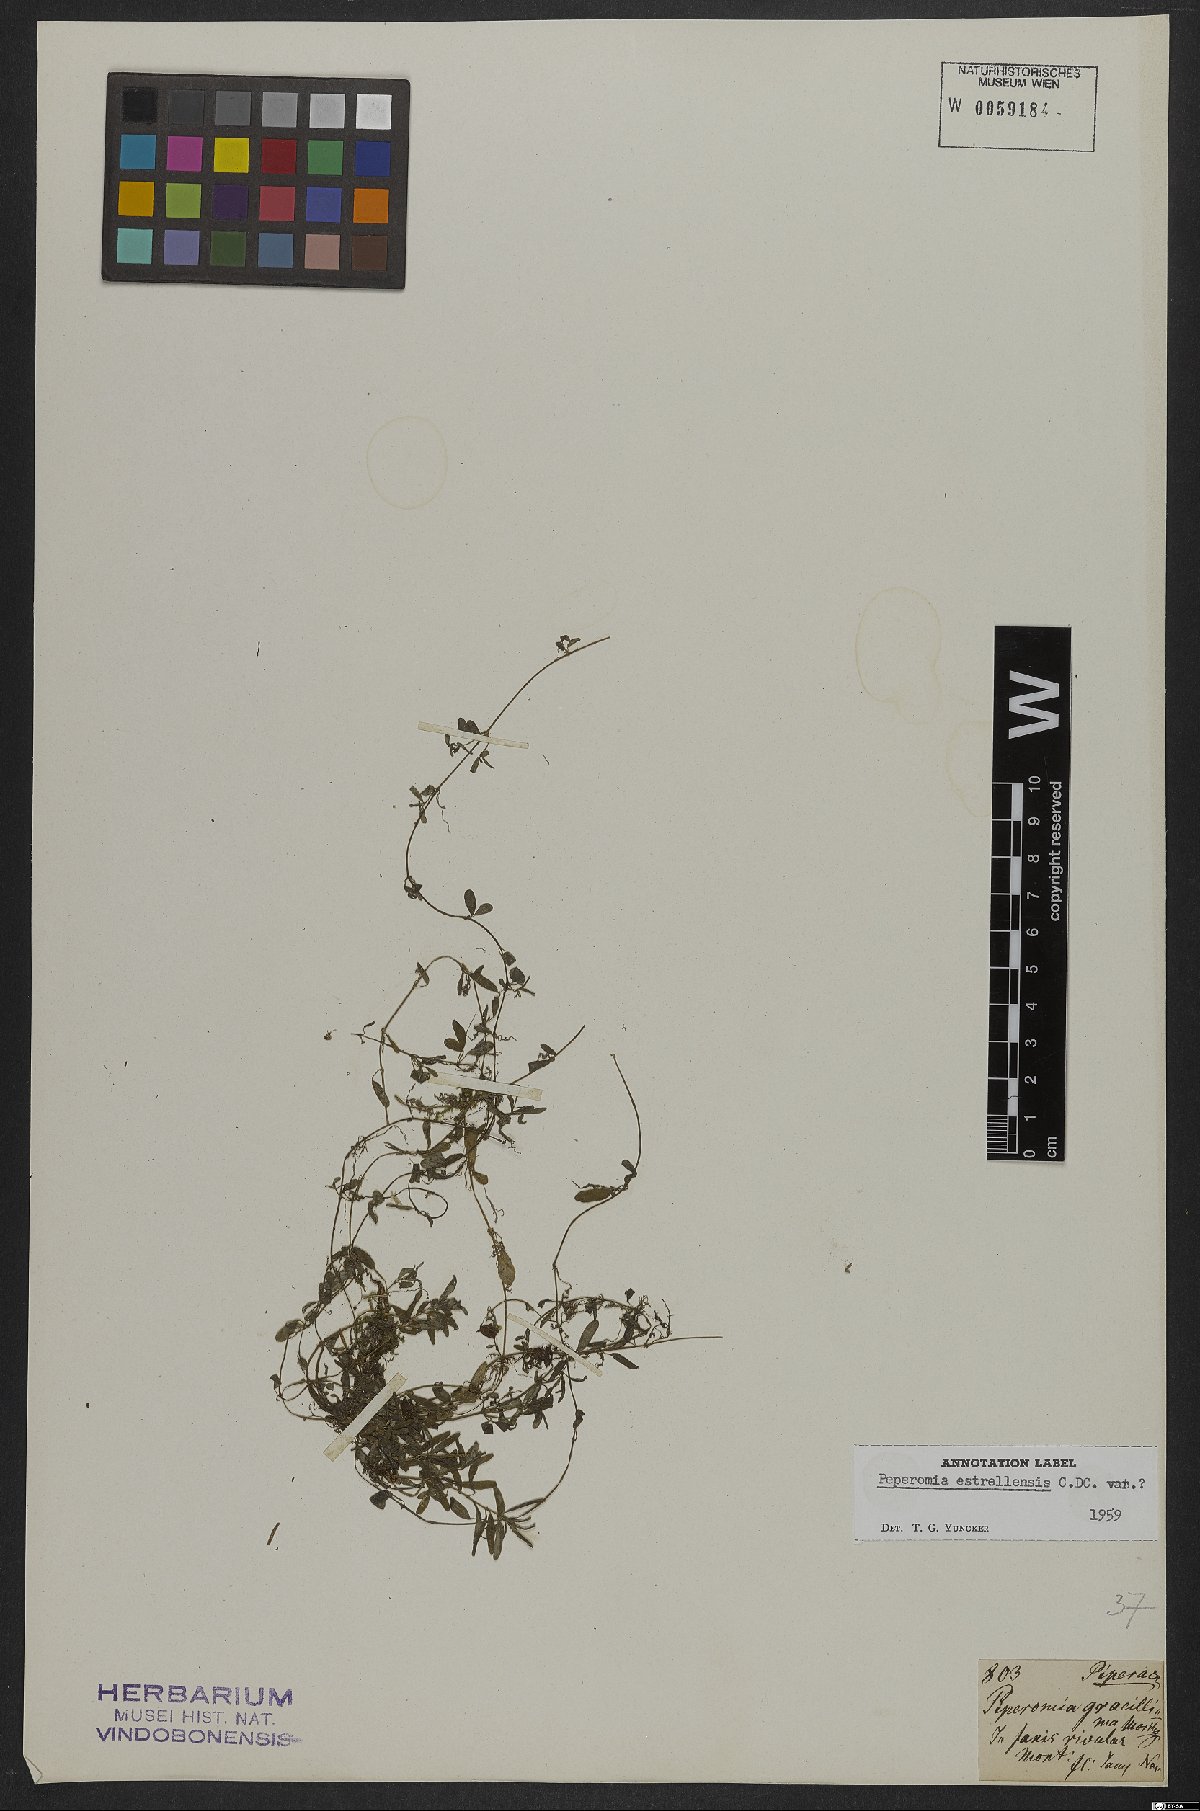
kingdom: Plantae
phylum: Tracheophyta
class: Magnoliopsida
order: Piperales
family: Piperaceae
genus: Peperomia
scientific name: Peperomia corcovadensis
